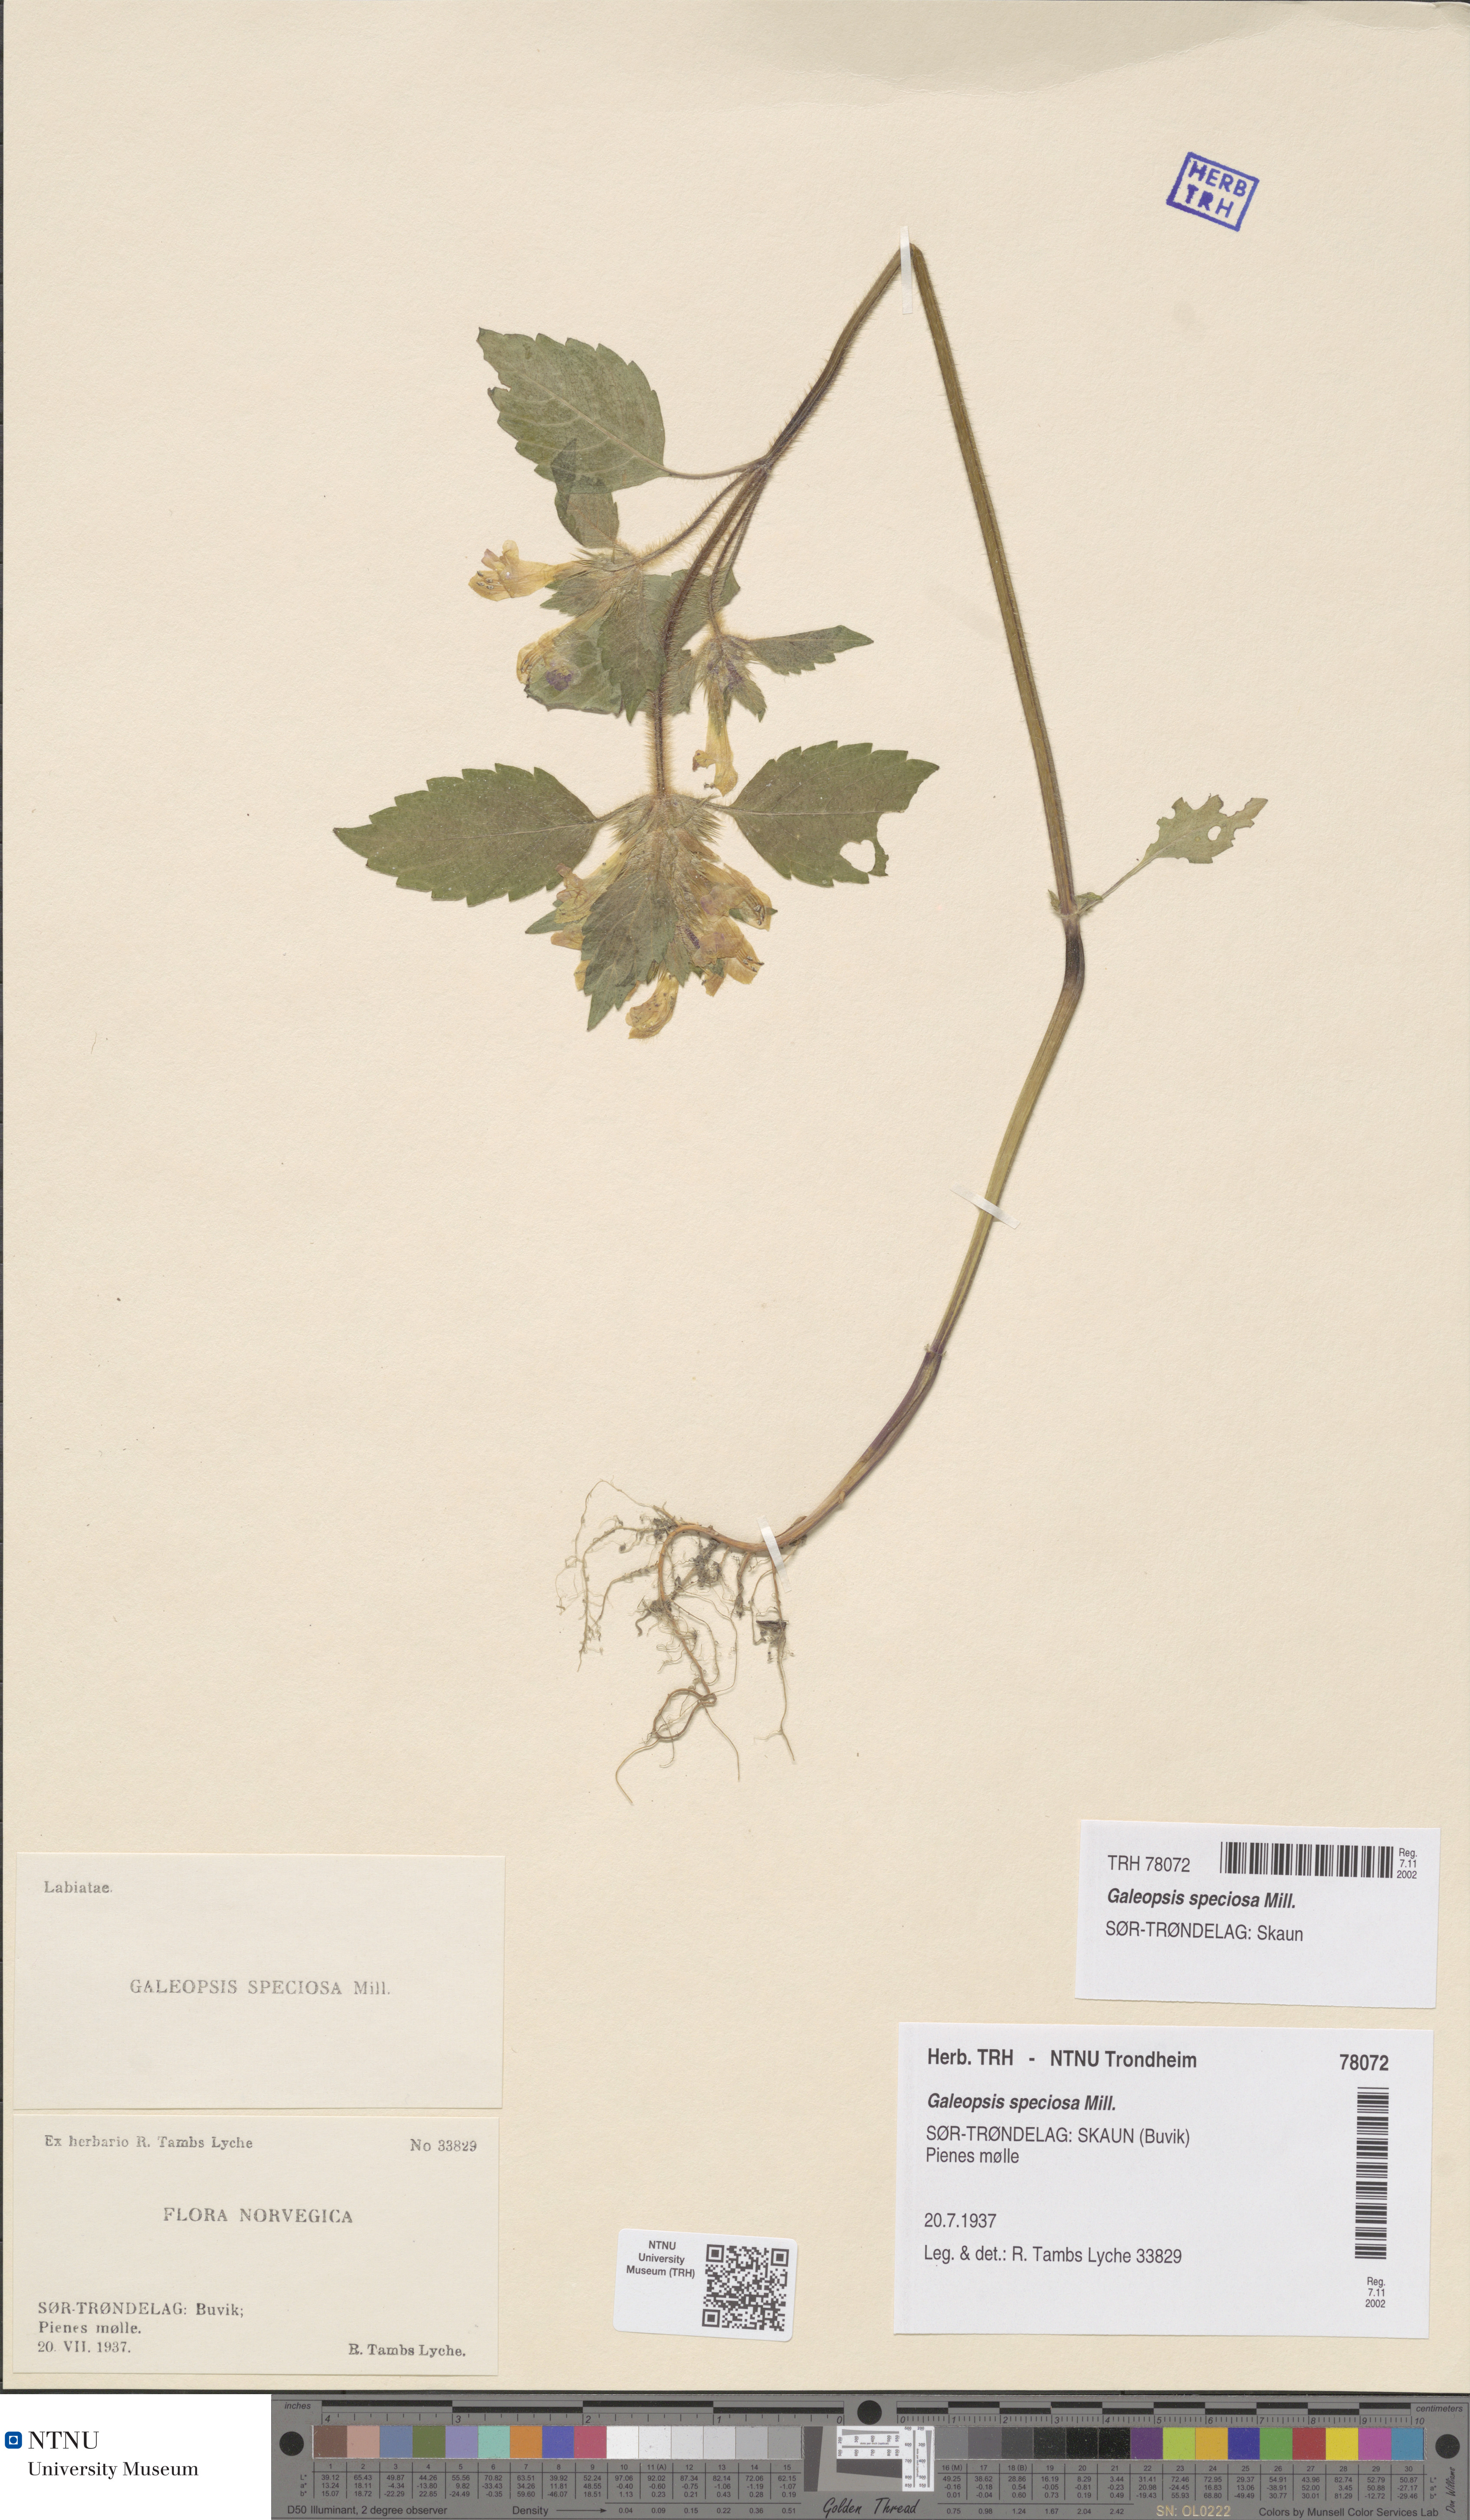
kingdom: Plantae
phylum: Tracheophyta
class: Magnoliopsida
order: Lamiales
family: Lamiaceae
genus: Galeopsis
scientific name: Galeopsis speciosa
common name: Large-flowered hemp-nettle
